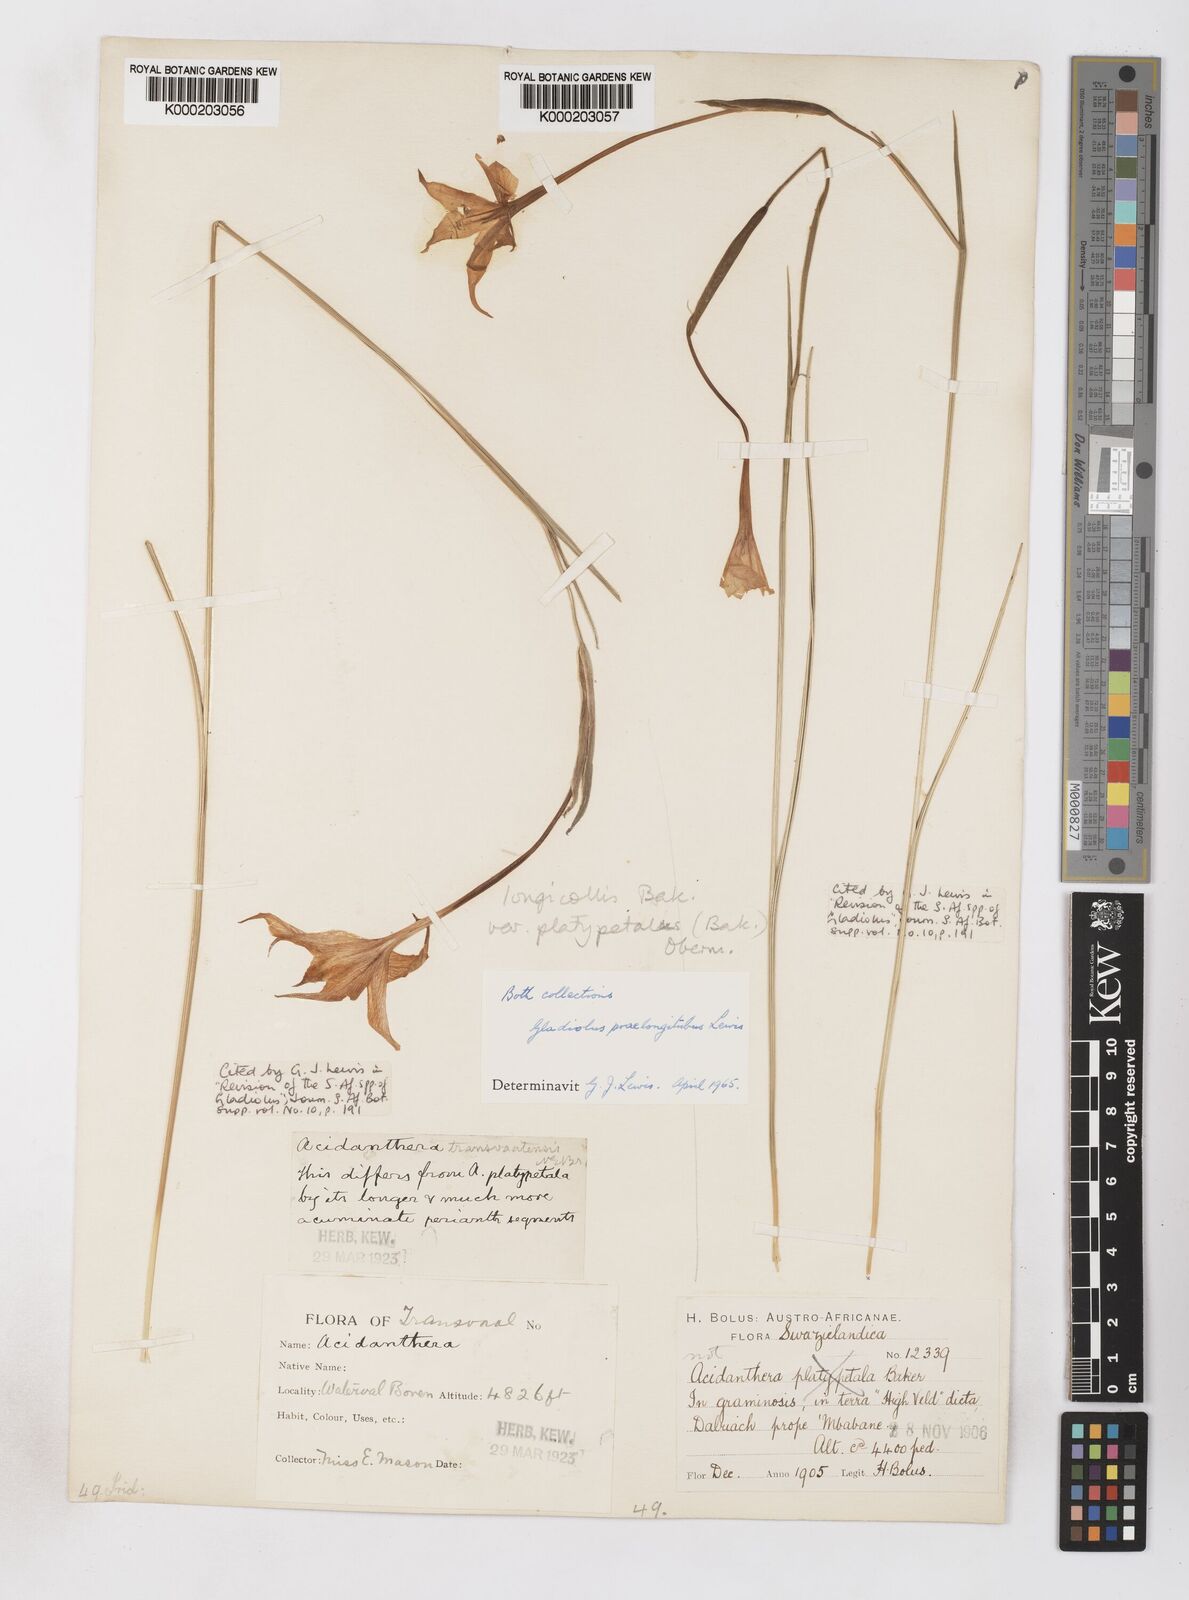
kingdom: Plantae
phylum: Tracheophyta
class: Liliopsida
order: Asparagales
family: Iridaceae
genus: Gladiolus
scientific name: Gladiolus longicollis
